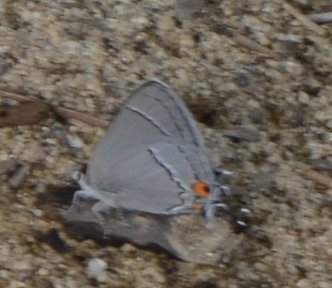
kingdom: Animalia
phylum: Arthropoda
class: Insecta
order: Lepidoptera
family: Lycaenidae
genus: Strymon
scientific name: Strymon melinus
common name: Gray Hairstreak
